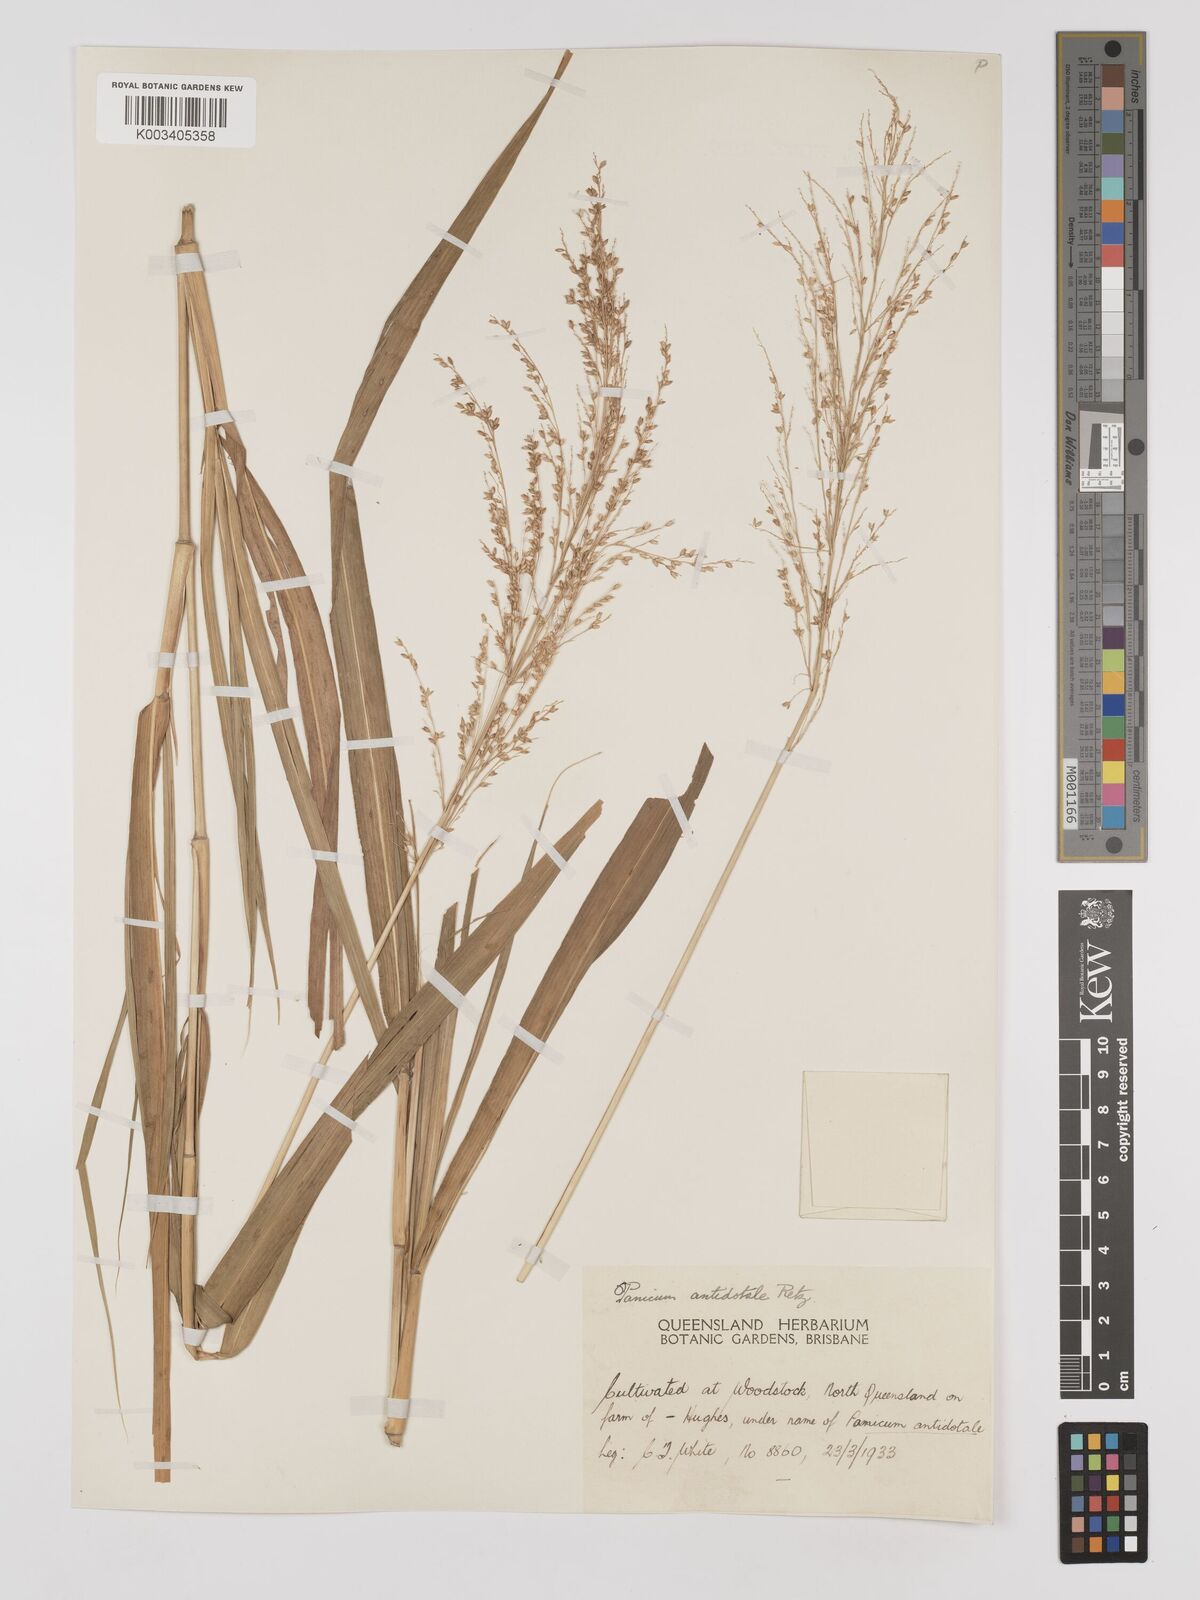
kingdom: Plantae
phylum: Tracheophyta
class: Liliopsida
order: Poales
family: Poaceae
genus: Panicum
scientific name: Panicum antidotale
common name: Blue panicum
